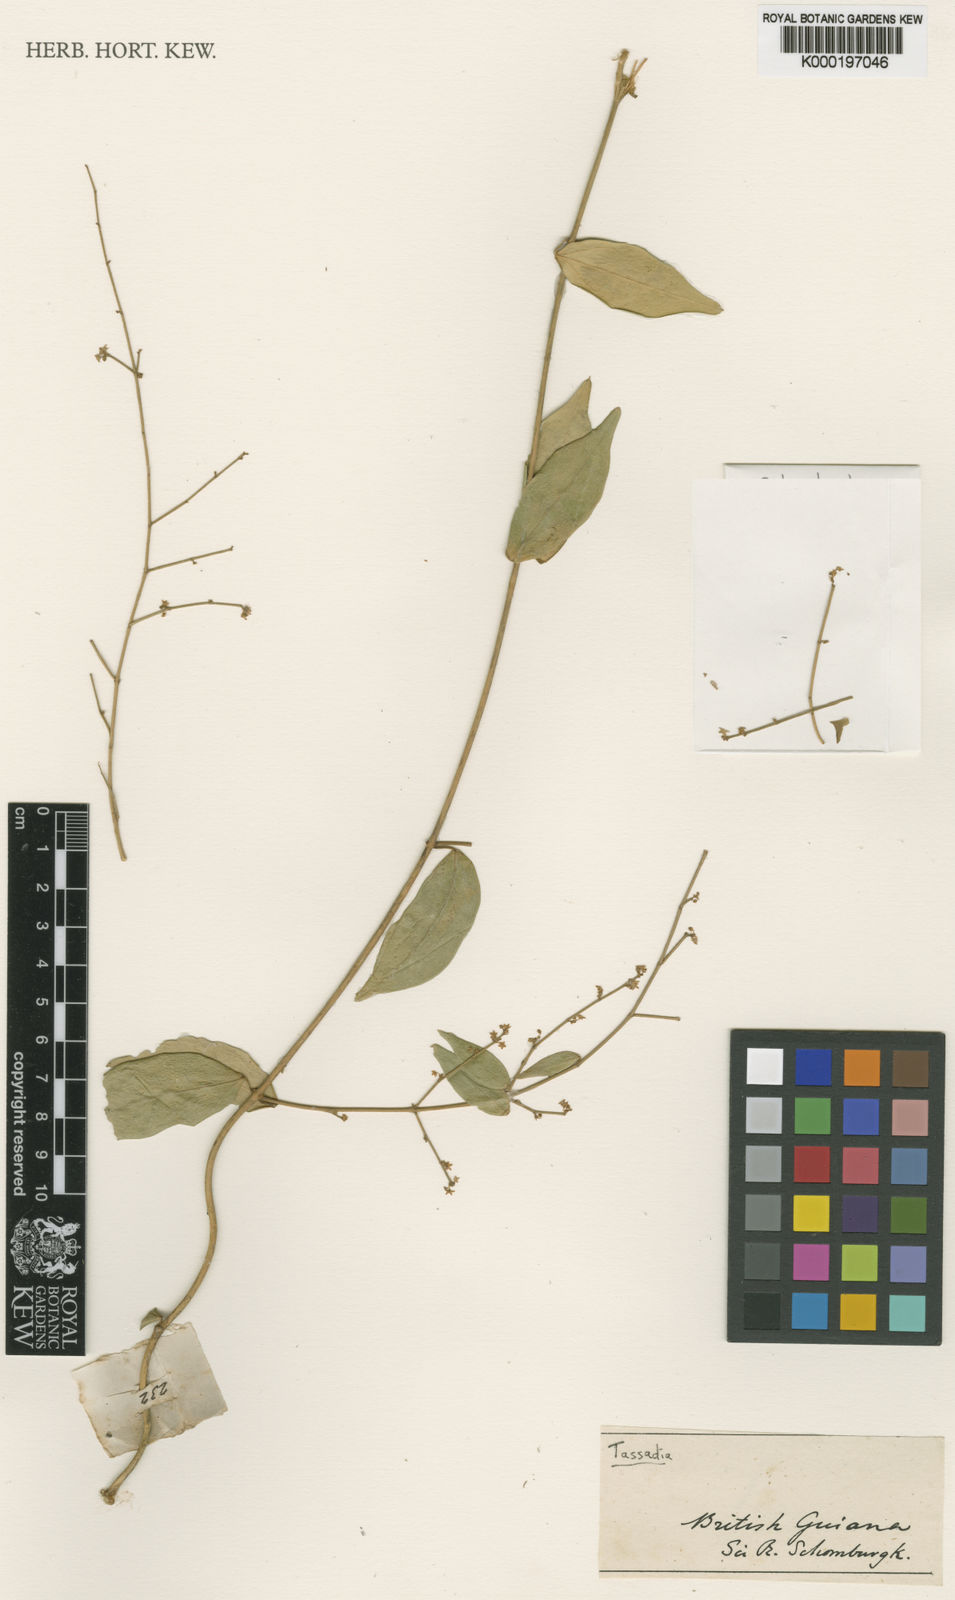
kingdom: Plantae
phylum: Tracheophyta
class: Magnoliopsida
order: Gentianales
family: Apocynaceae
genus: Tassadia
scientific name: Tassadia propinqua
